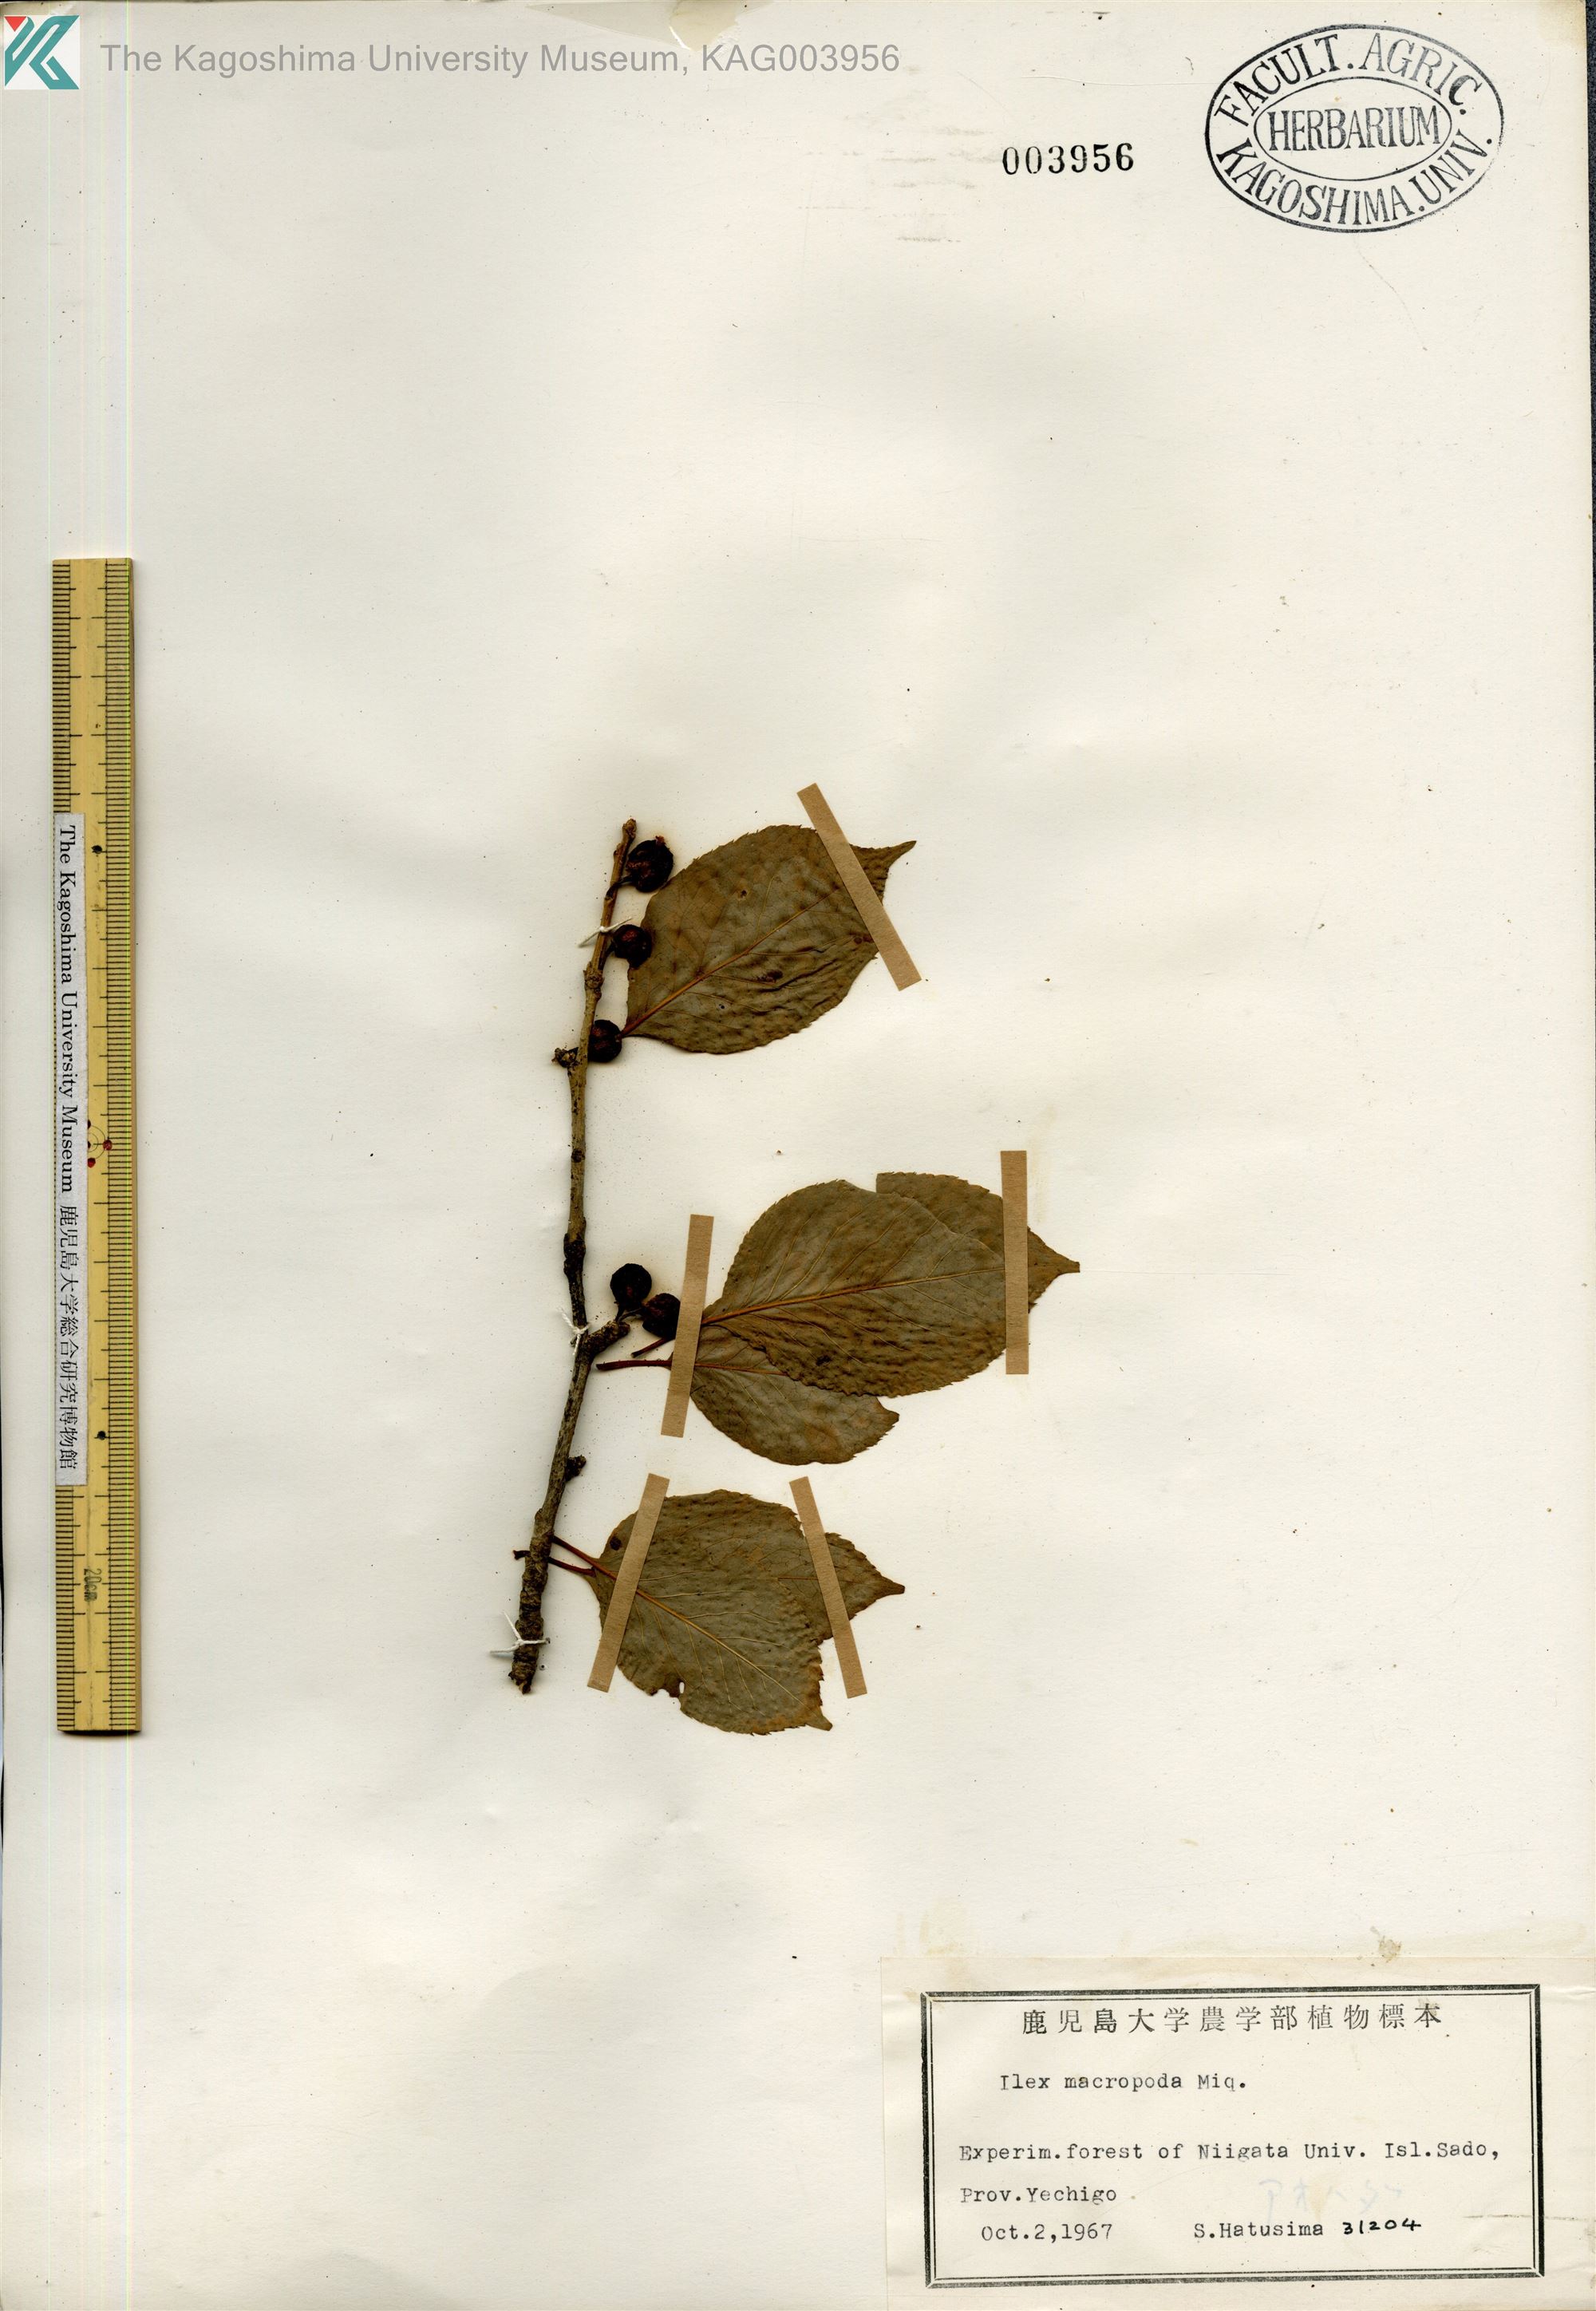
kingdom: Plantae
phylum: Tracheophyta
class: Magnoliopsida
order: Aquifoliales
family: Aquifoliaceae
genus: Ilex
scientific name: Ilex macropoda
